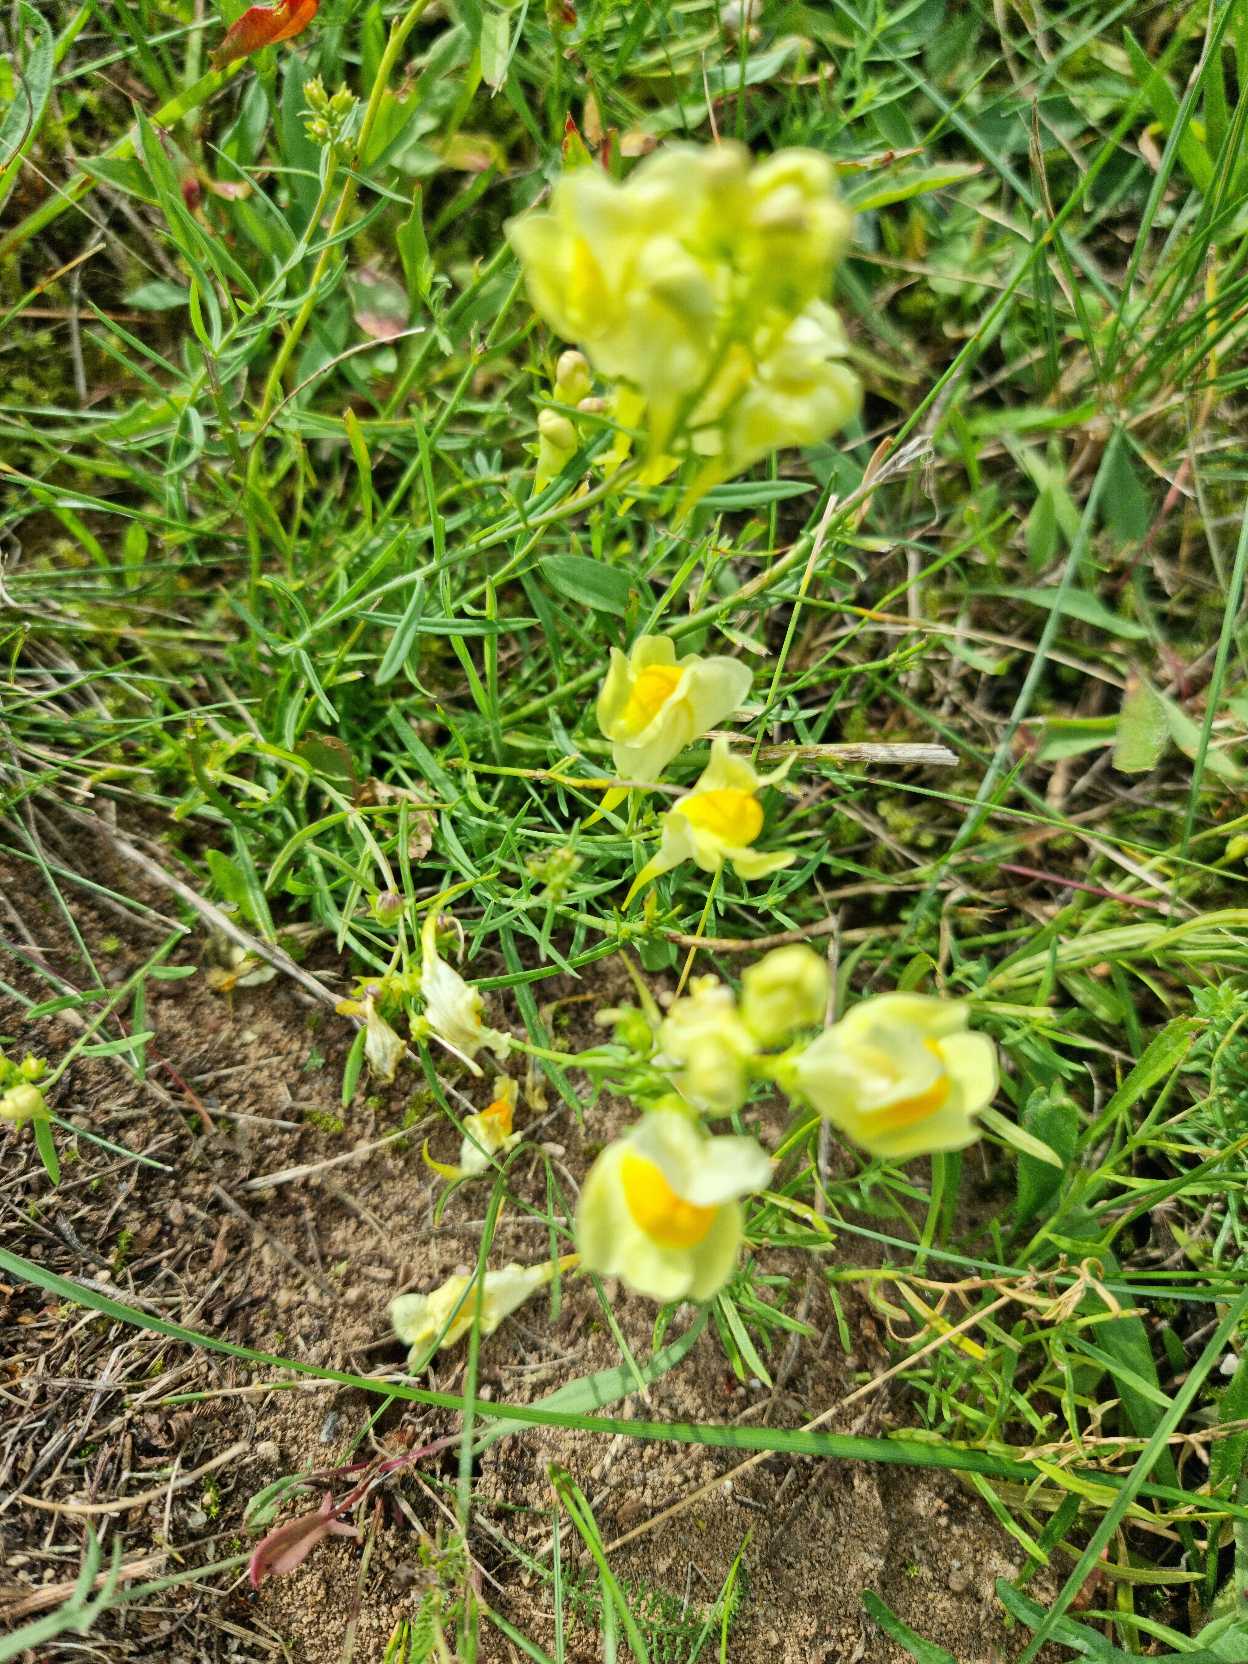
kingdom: Plantae
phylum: Tracheophyta
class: Magnoliopsida
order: Lamiales
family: Plantaginaceae
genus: Linaria
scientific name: Linaria vulgaris
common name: Almindelig torskemund
